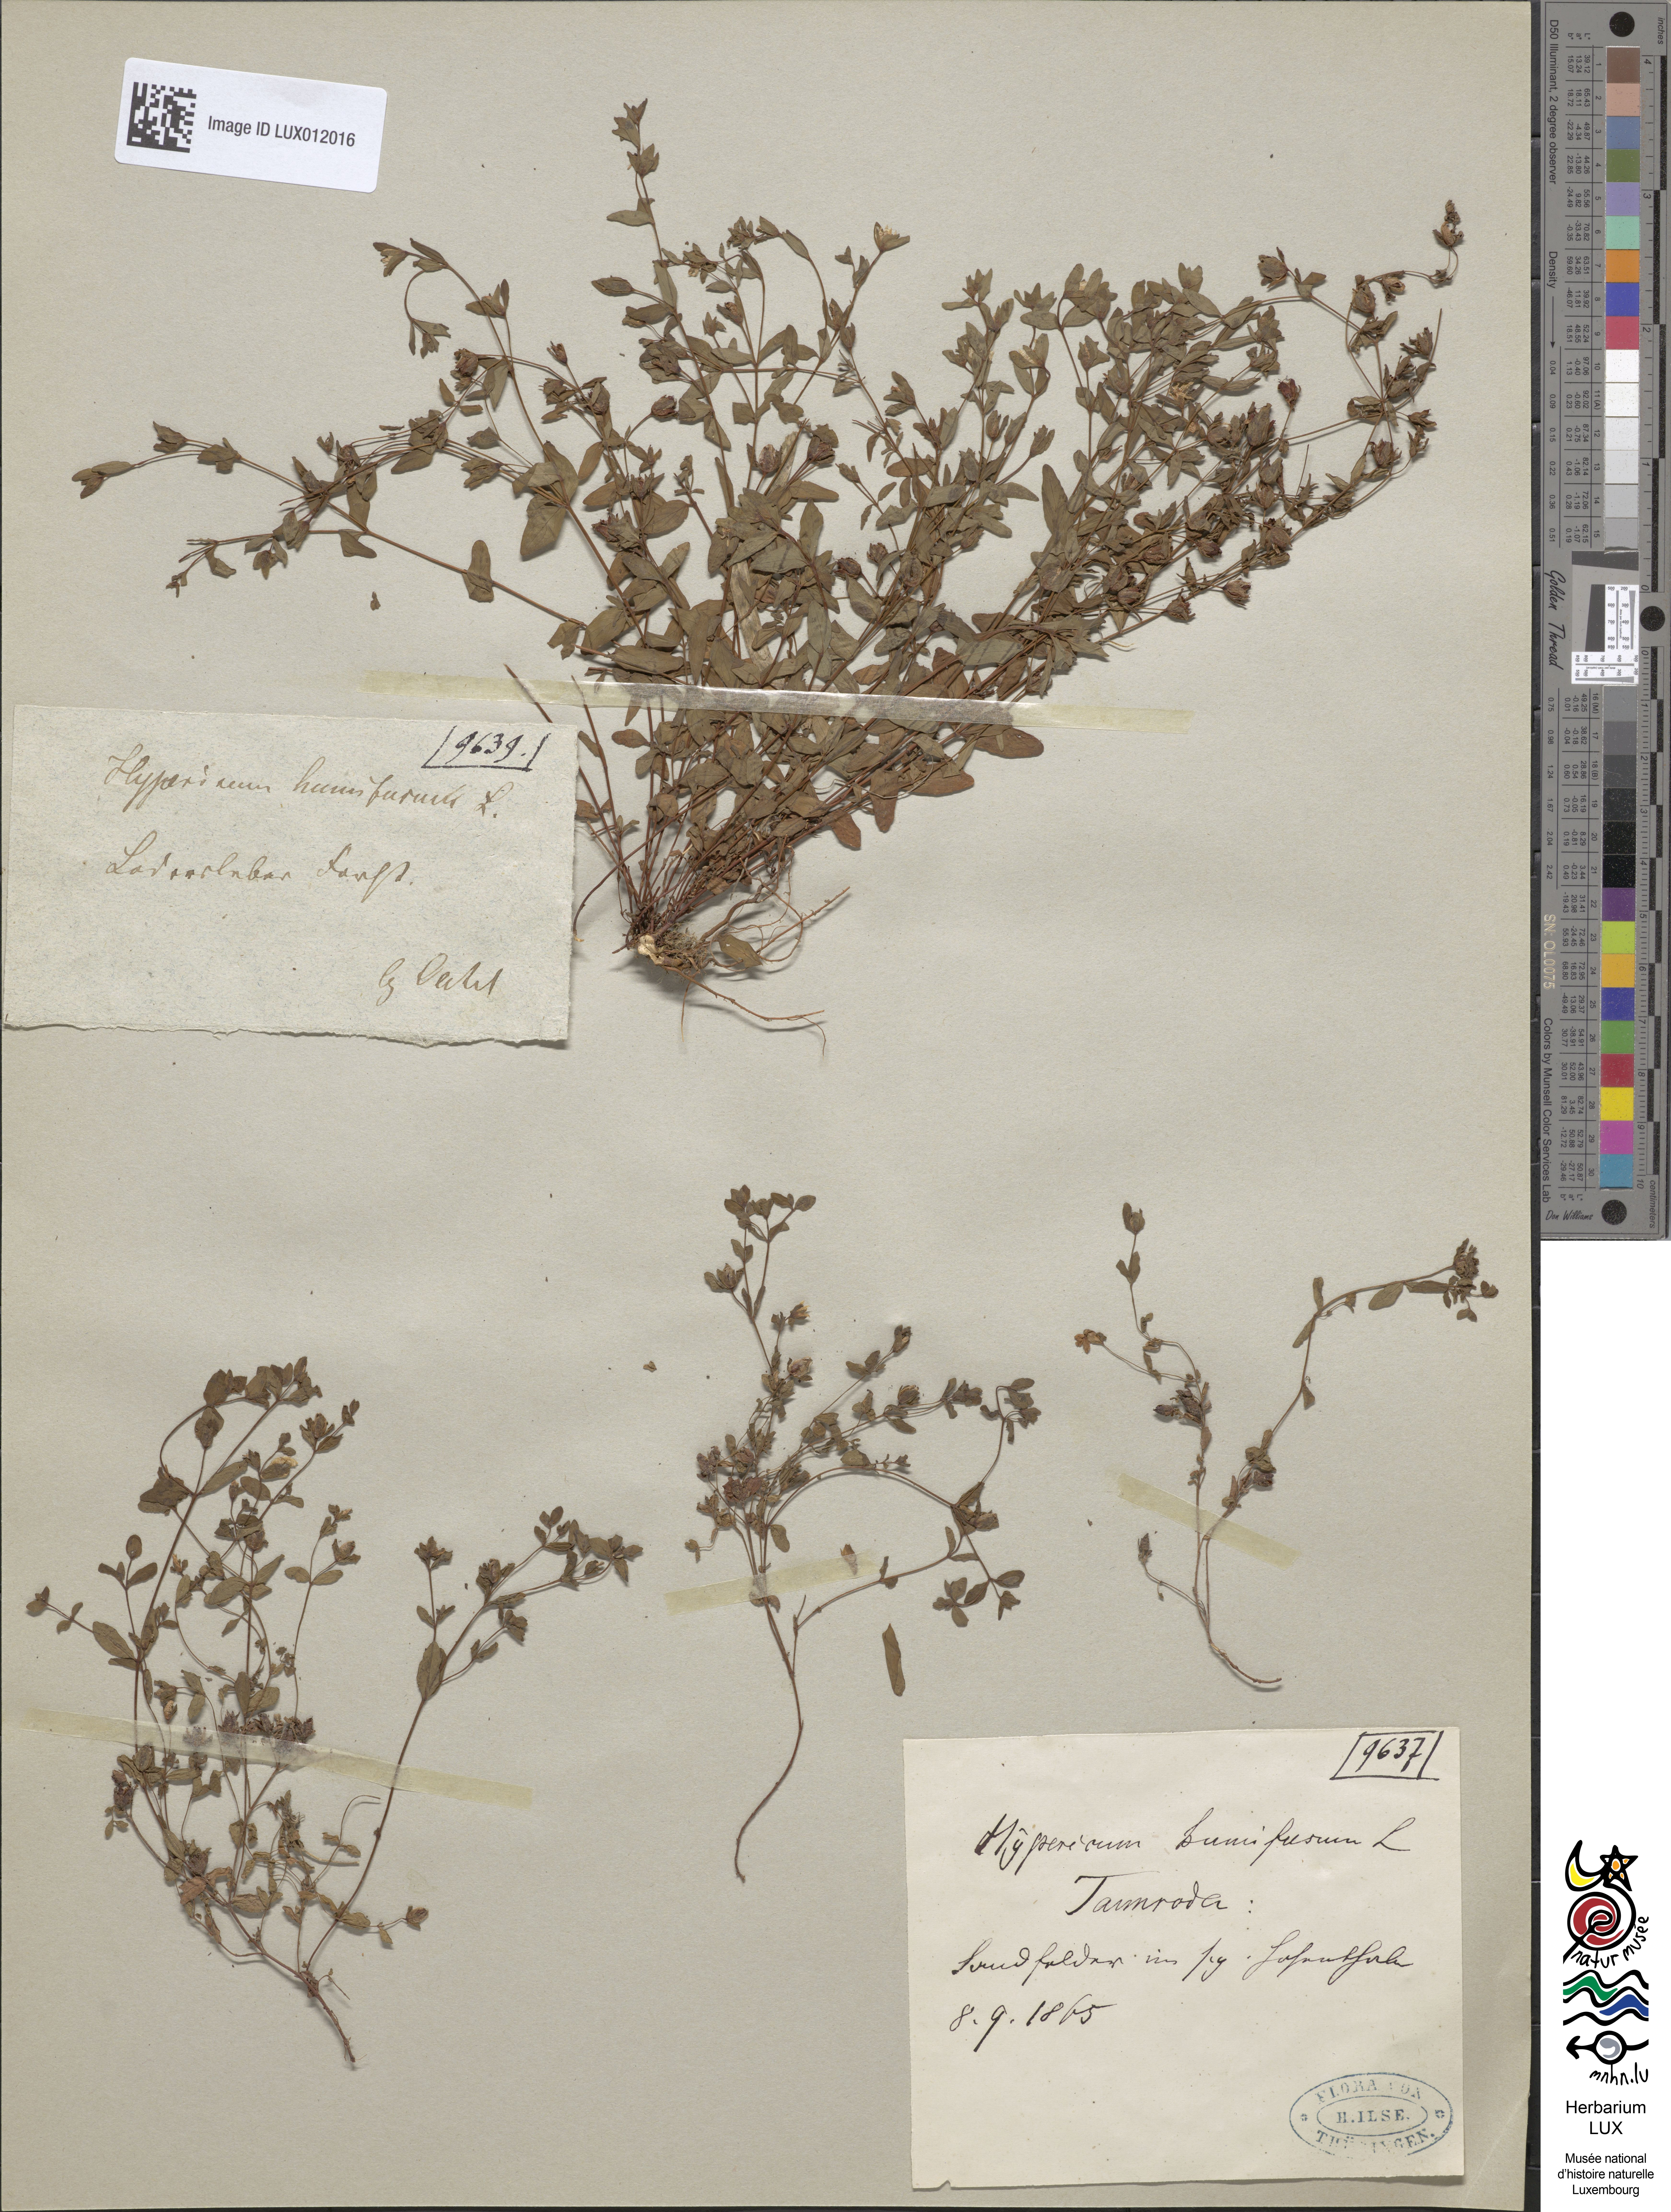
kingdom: Plantae
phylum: Tracheophyta
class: Magnoliopsida
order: Malpighiales
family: Hypericaceae
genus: Hypericum
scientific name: Hypericum humifusum
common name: Trailing st. john's-wort
